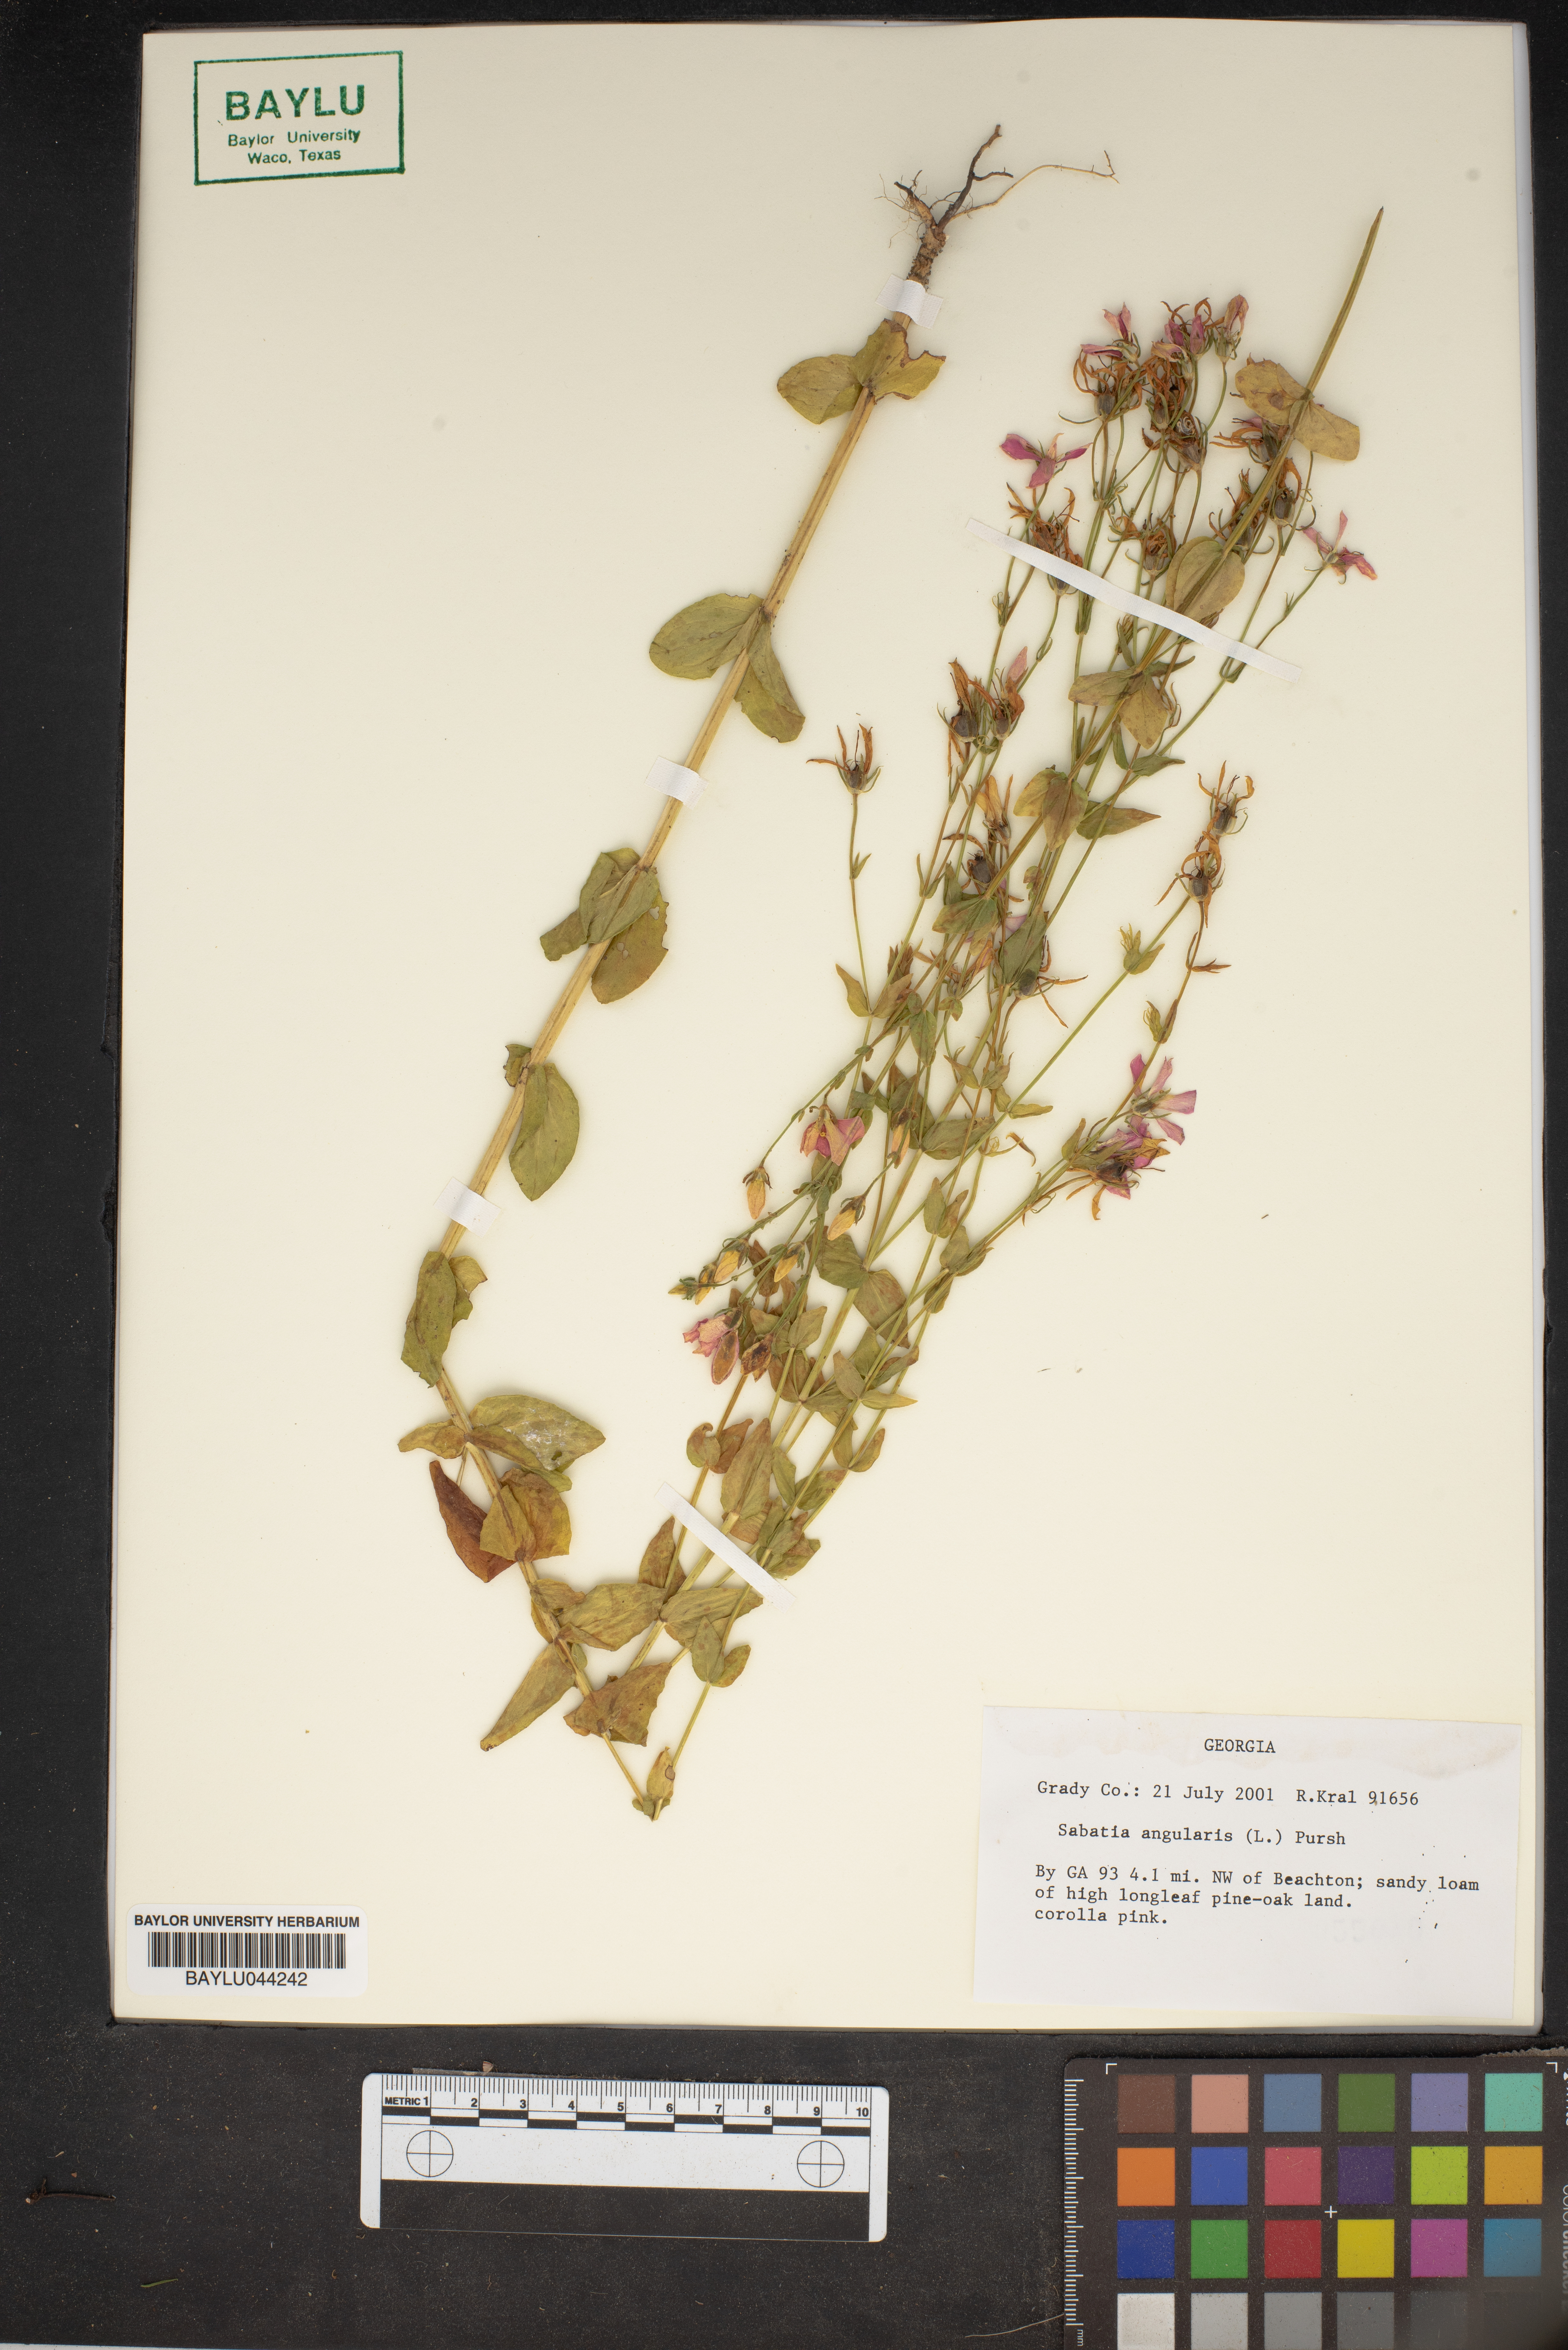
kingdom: Plantae
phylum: Tracheophyta
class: Magnoliopsida
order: Gentianales
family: Gentianaceae
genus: Sabatia
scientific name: Sabatia angularis
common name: Rose-pink
